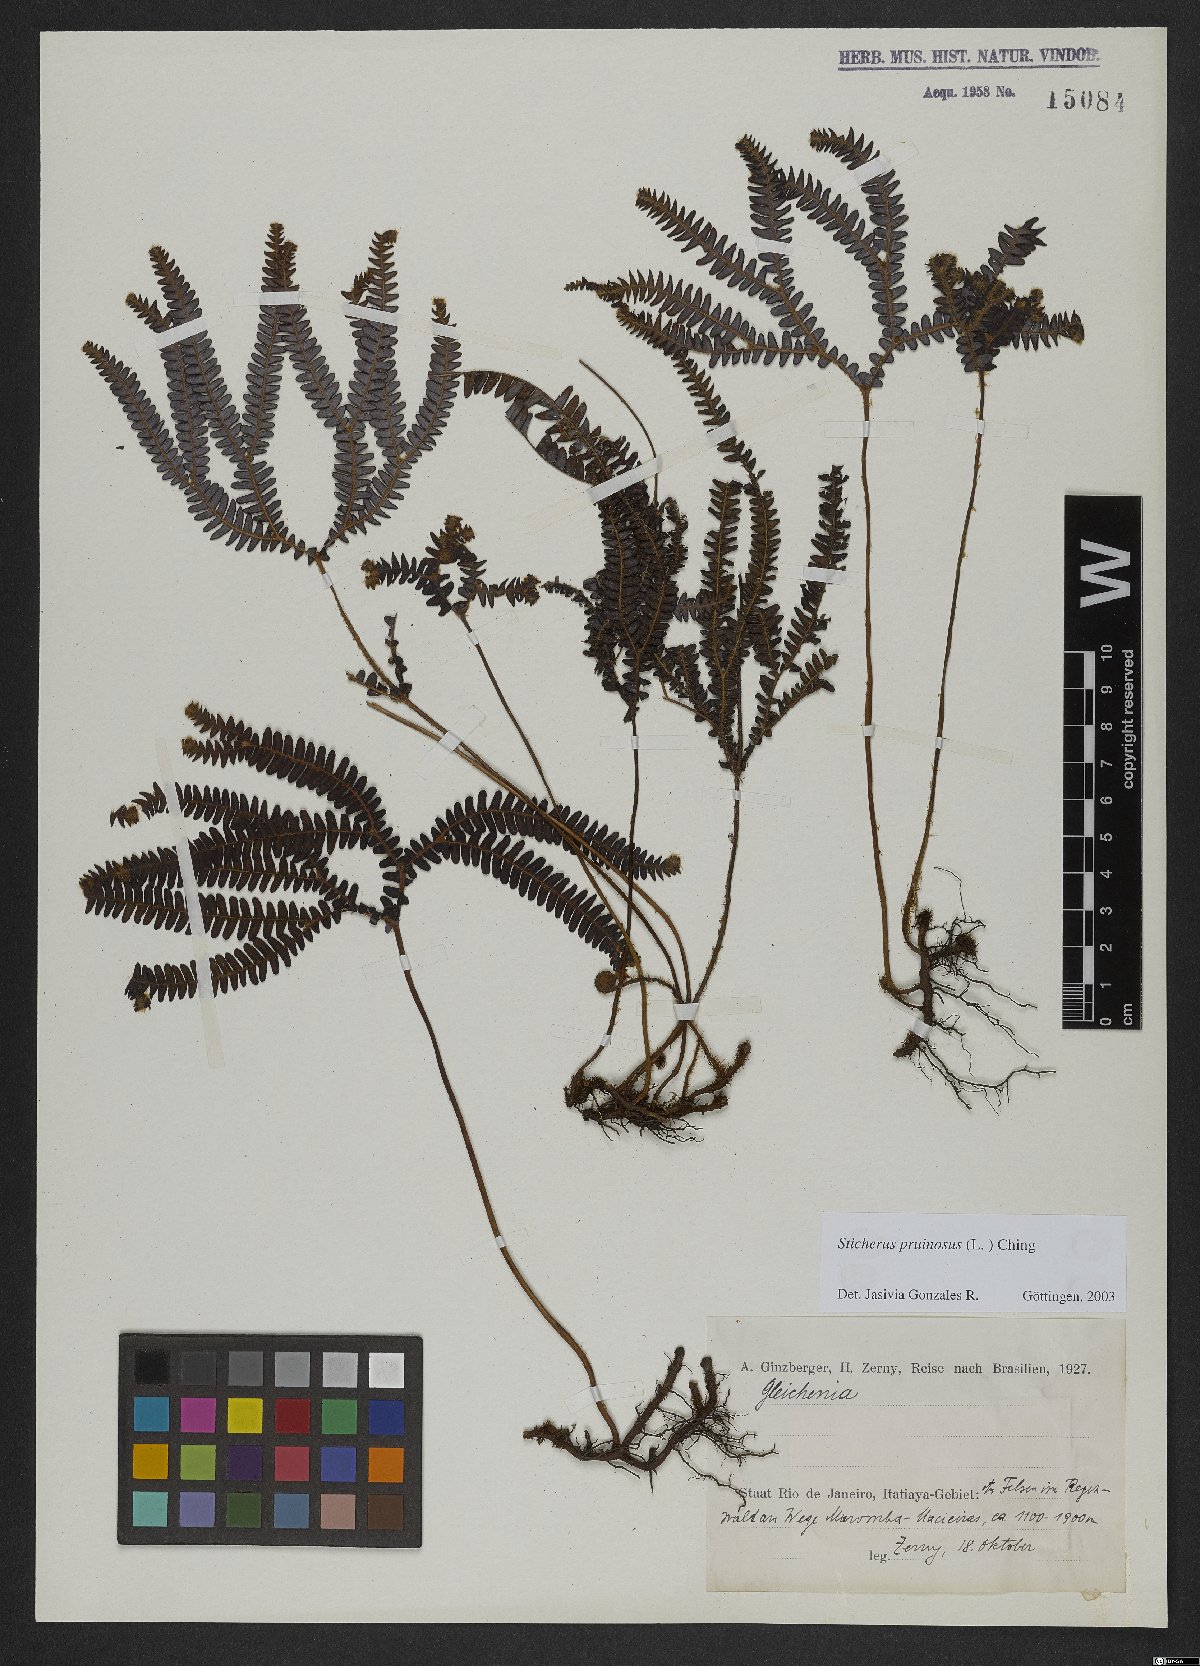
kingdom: Plantae
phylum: Tracheophyta
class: Polypodiopsida
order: Gleicheniales
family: Gleicheniaceae
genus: Sticherus
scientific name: Sticherus pruinosus
